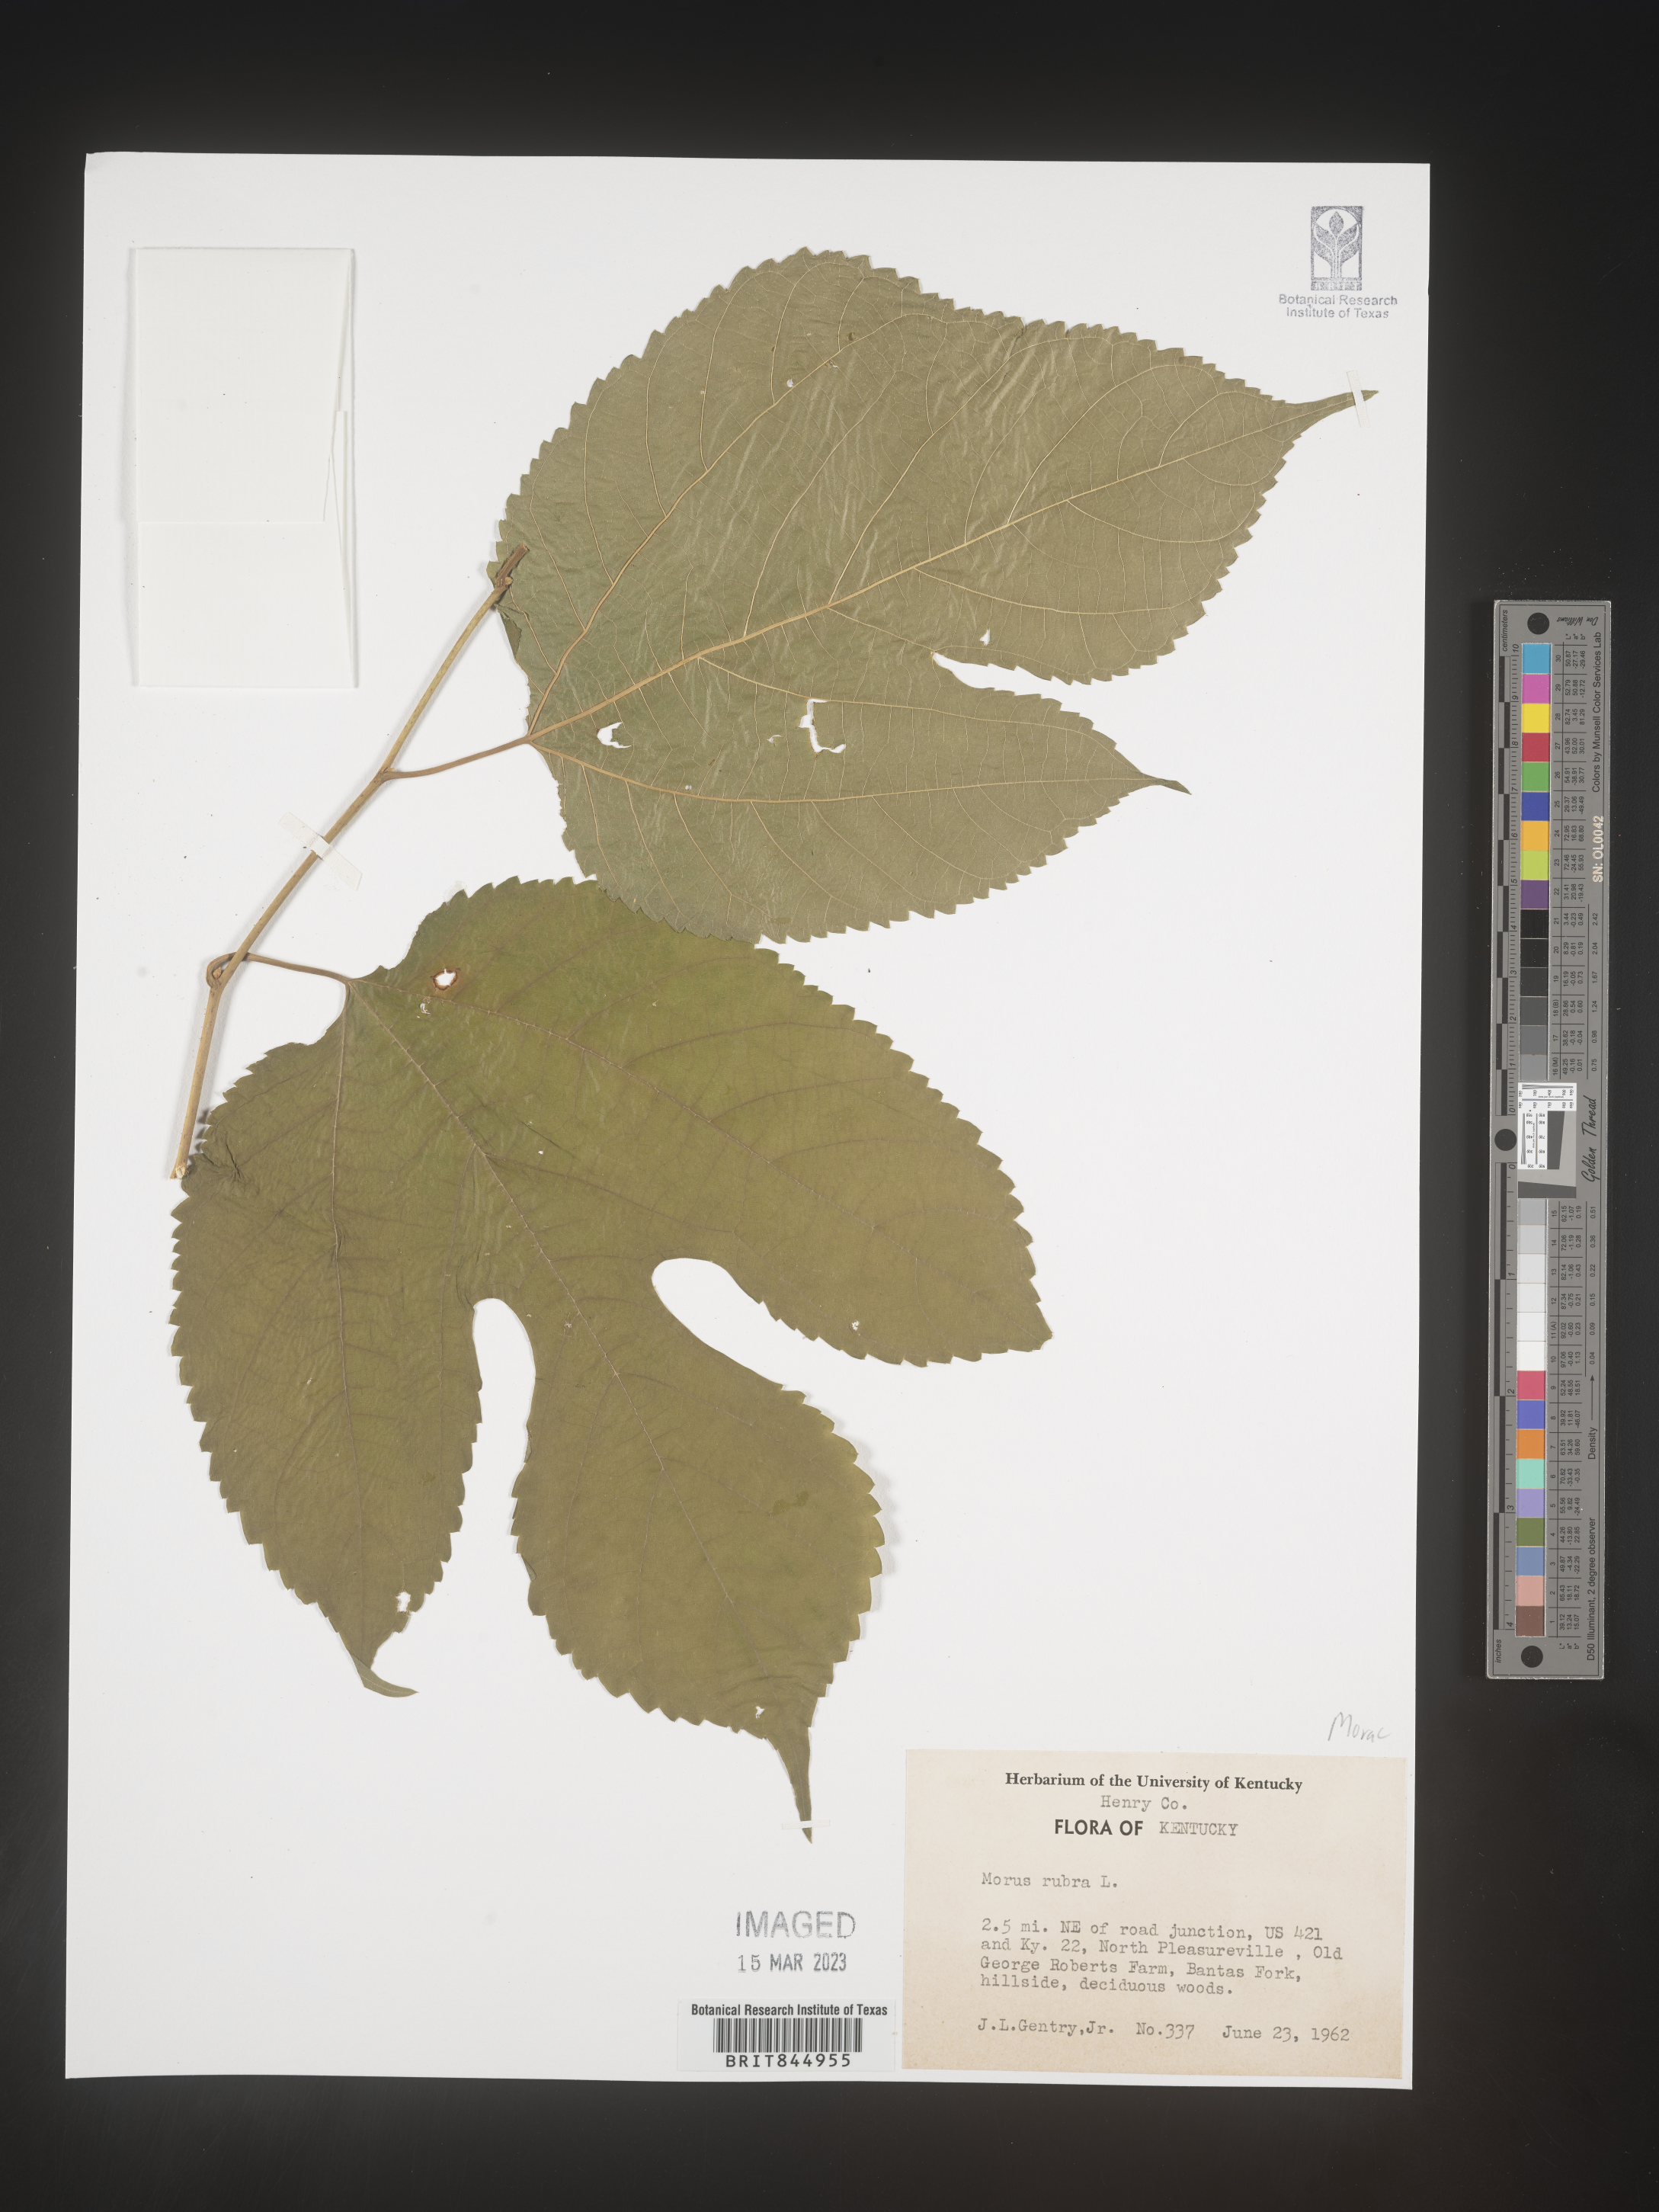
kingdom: Plantae
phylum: Tracheophyta
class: Magnoliopsida
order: Rosales
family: Moraceae
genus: Morus
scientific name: Morus rubra
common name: Red mulberry
